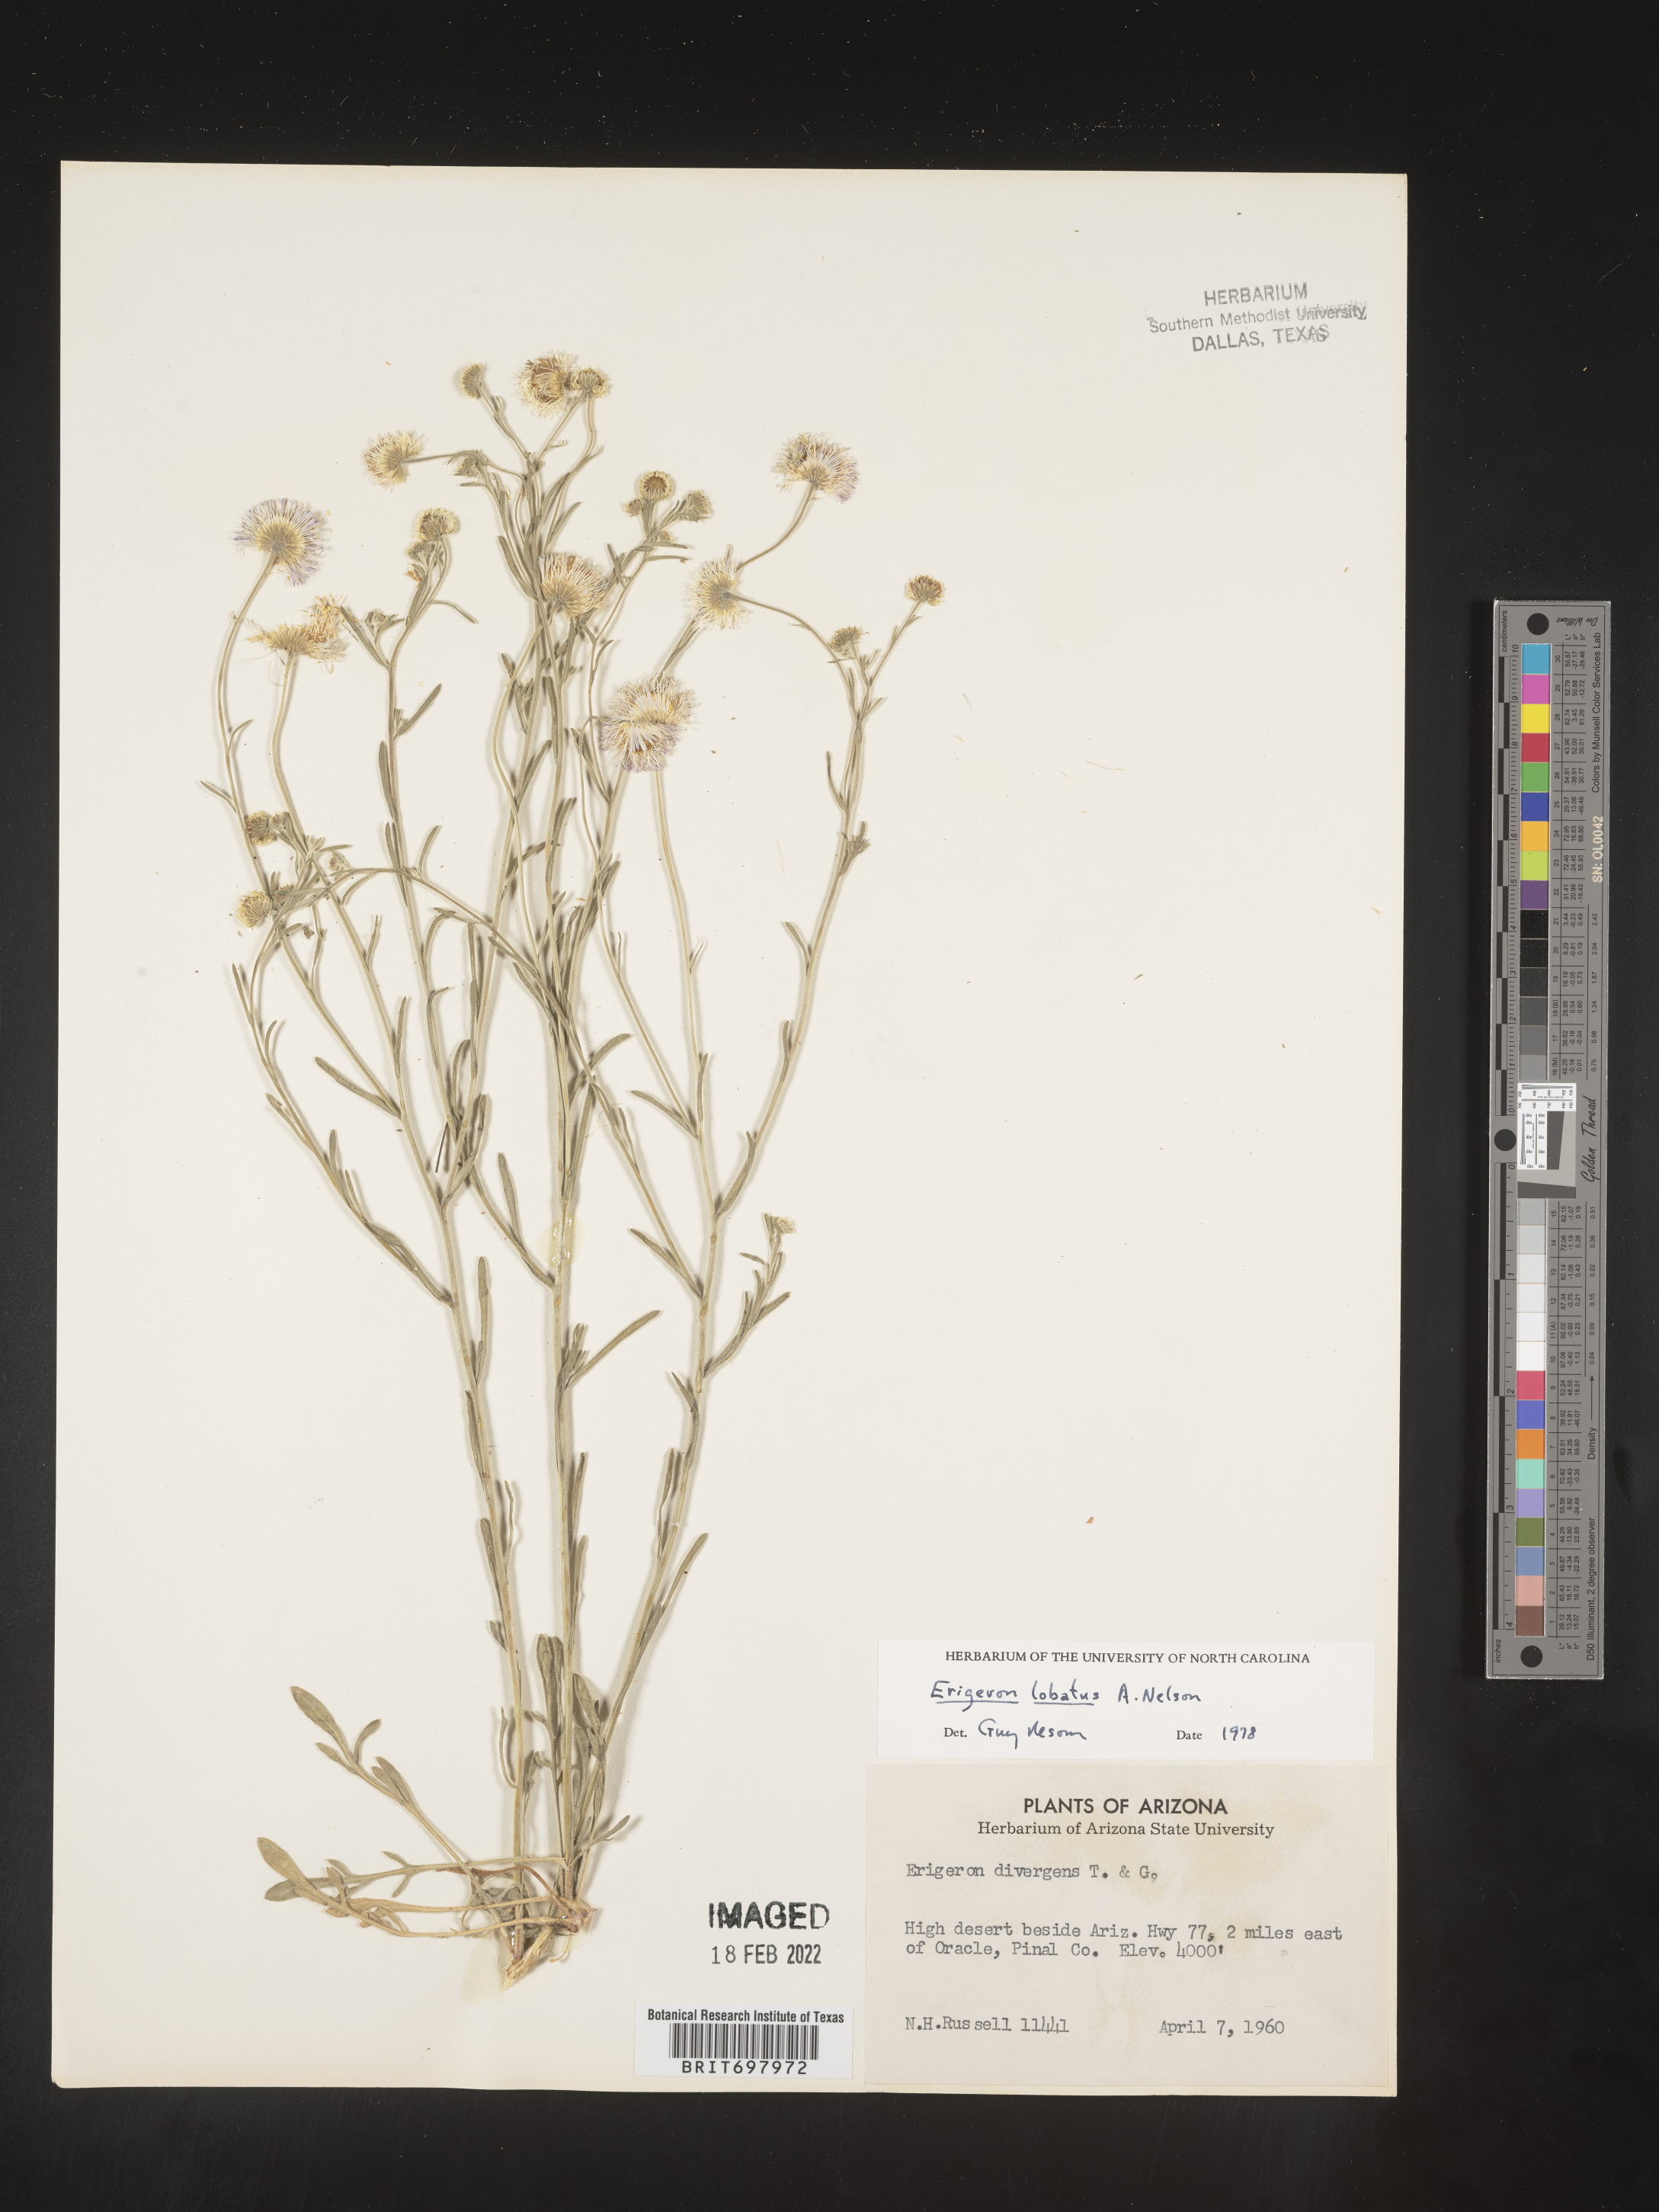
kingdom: Plantae
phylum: Tracheophyta
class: Magnoliopsida
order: Asterales
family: Asteraceae
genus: Erigeron
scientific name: Erigeron lobatus
